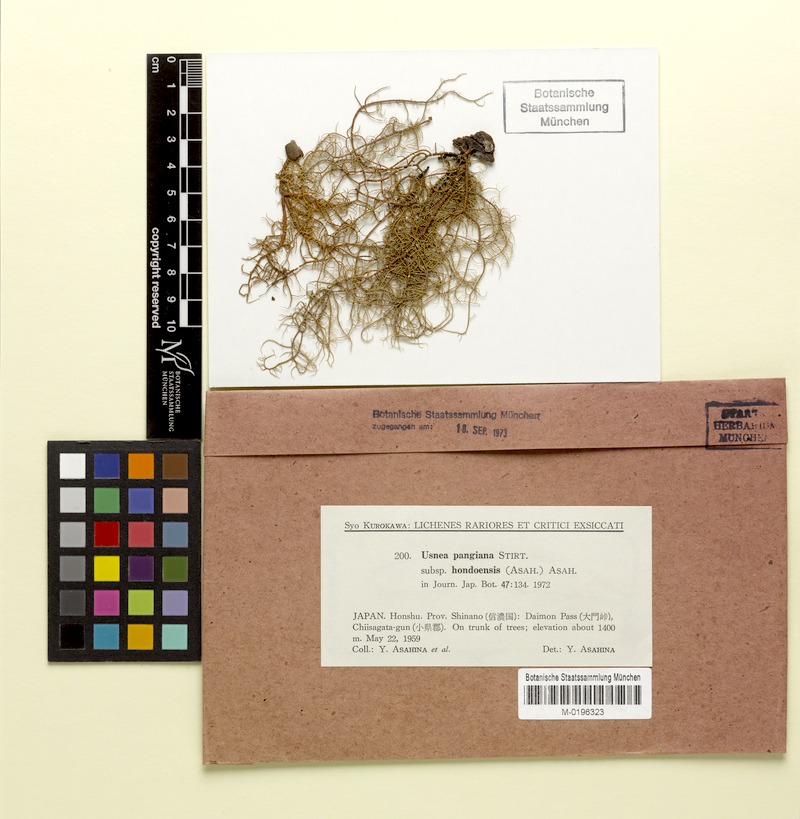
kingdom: Fungi
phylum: Ascomycota
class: Lecanoromycetes
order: Lecanorales
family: Parmeliaceae
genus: Usnea
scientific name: Usnea pangiana
